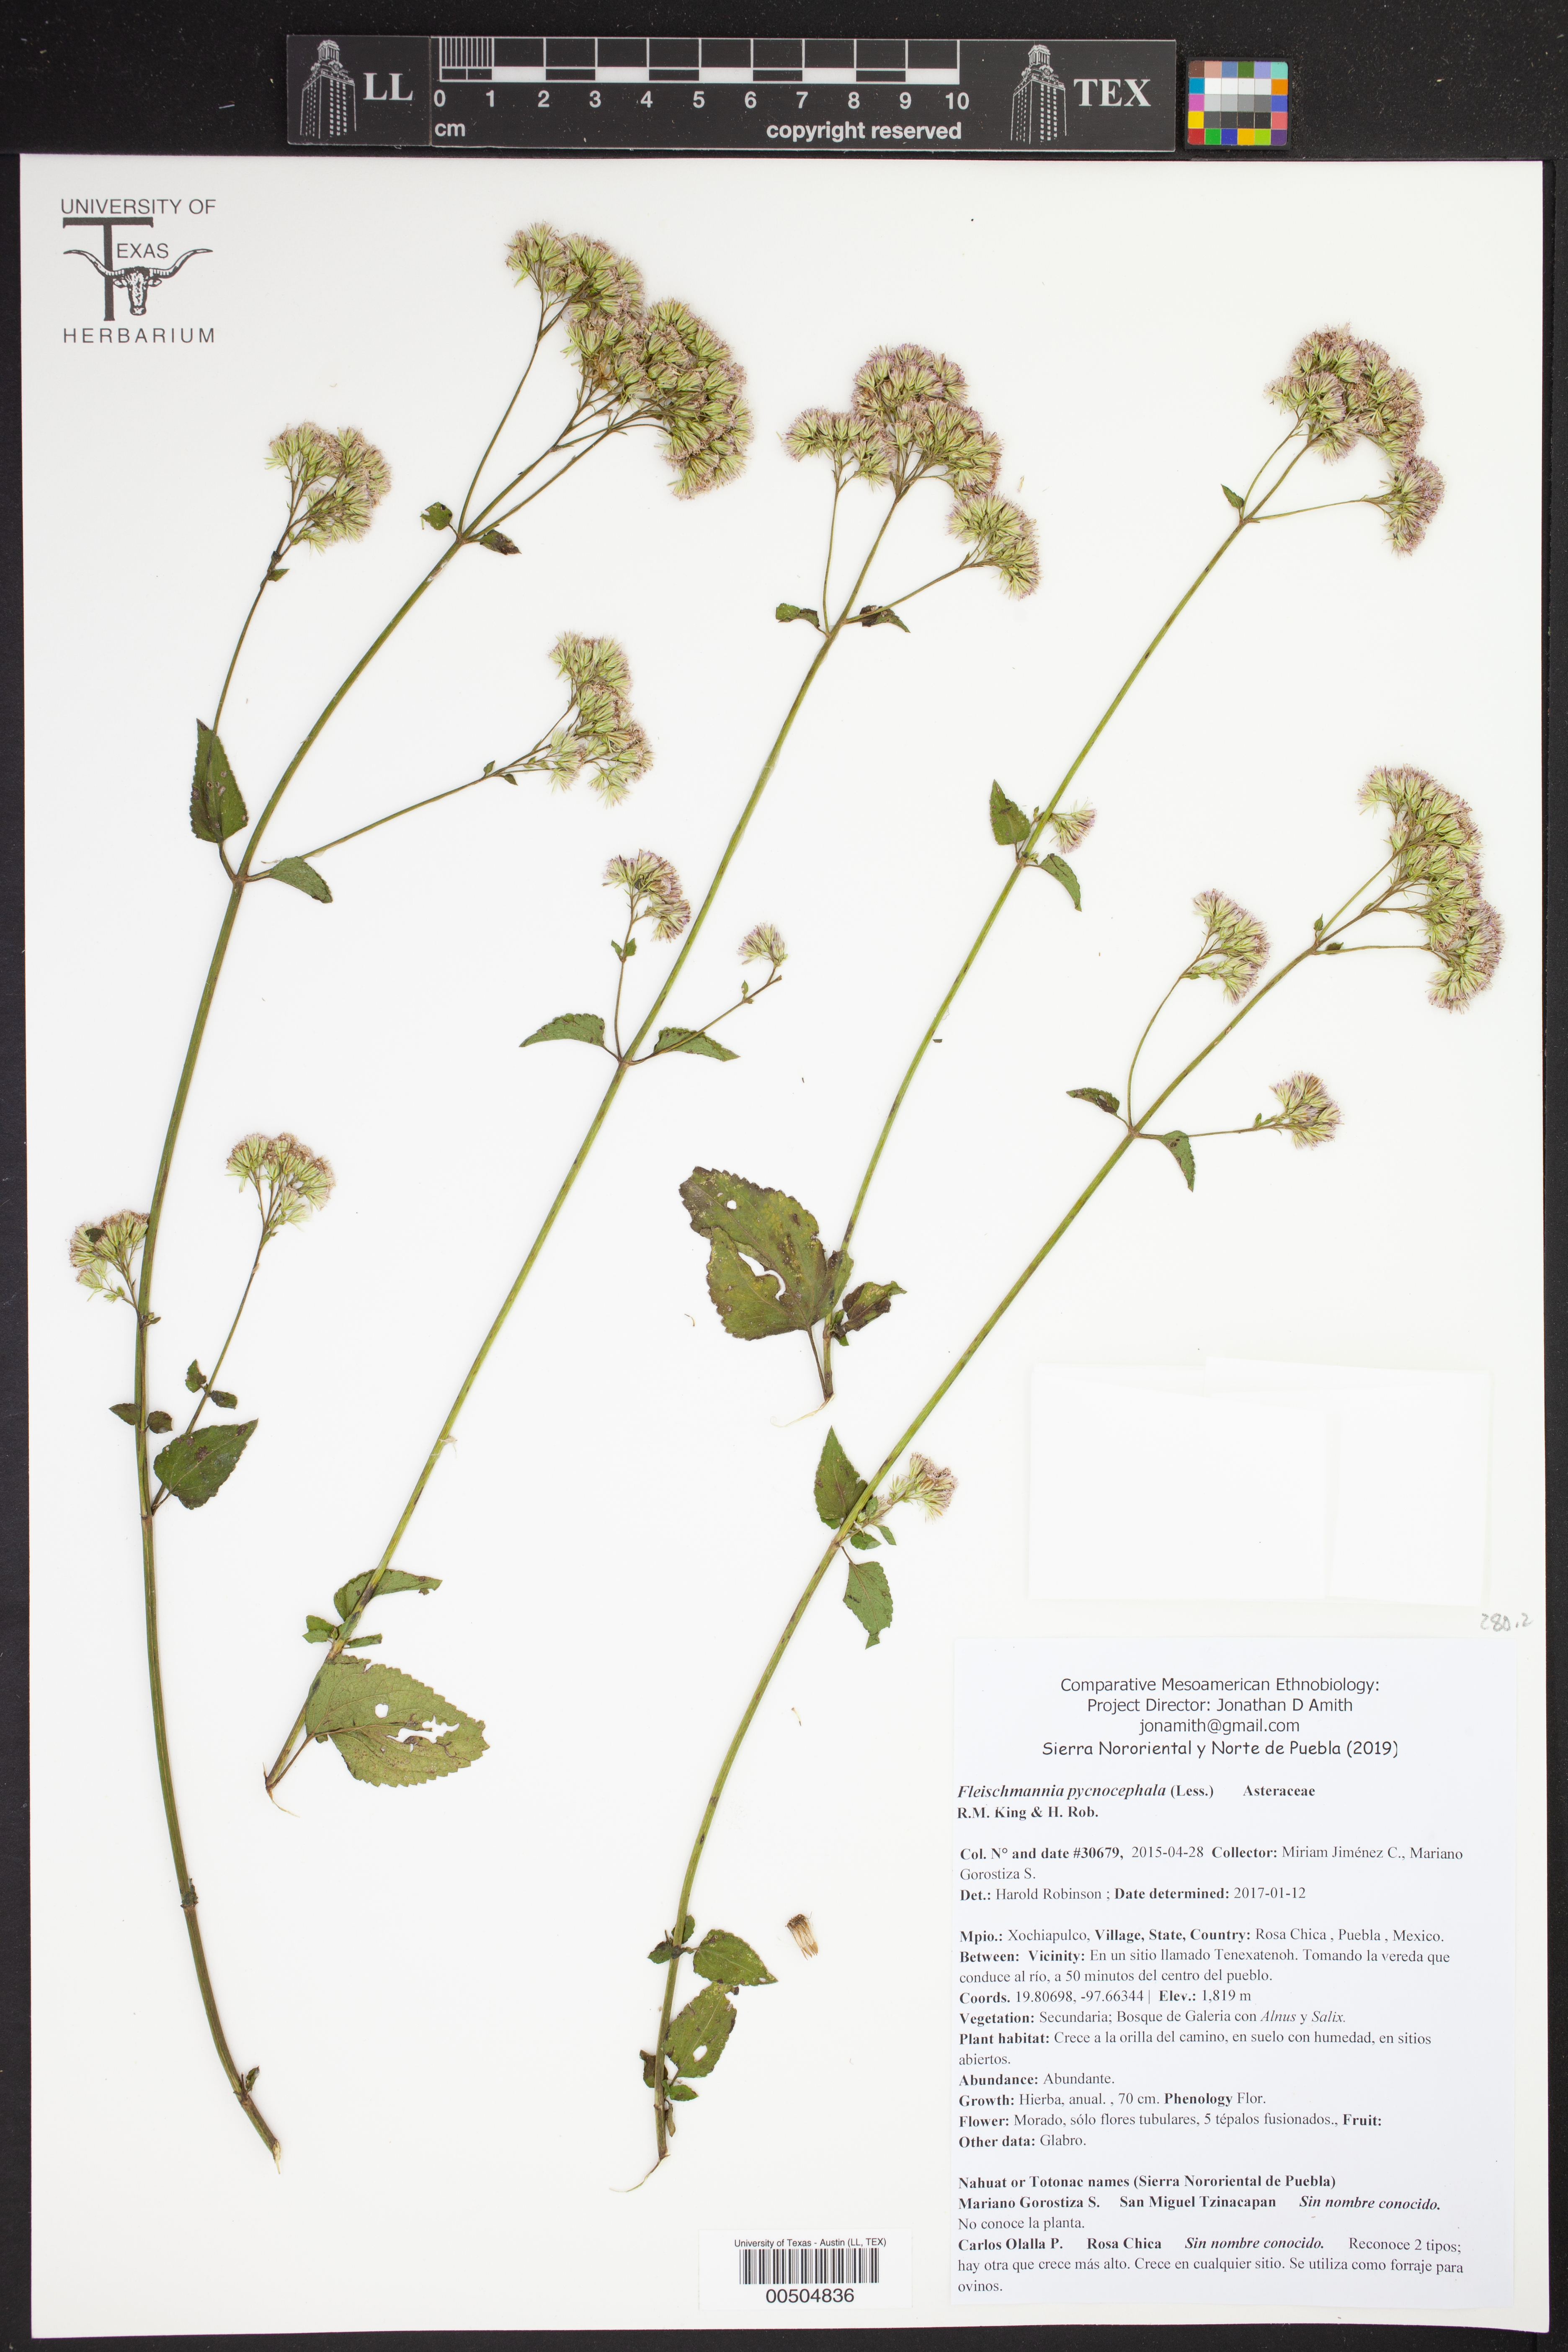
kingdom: Plantae
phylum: Tracheophyta
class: Magnoliopsida
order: Asterales
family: Asteraceae
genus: Fleischmannia
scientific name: Fleischmannia pycnocephala
